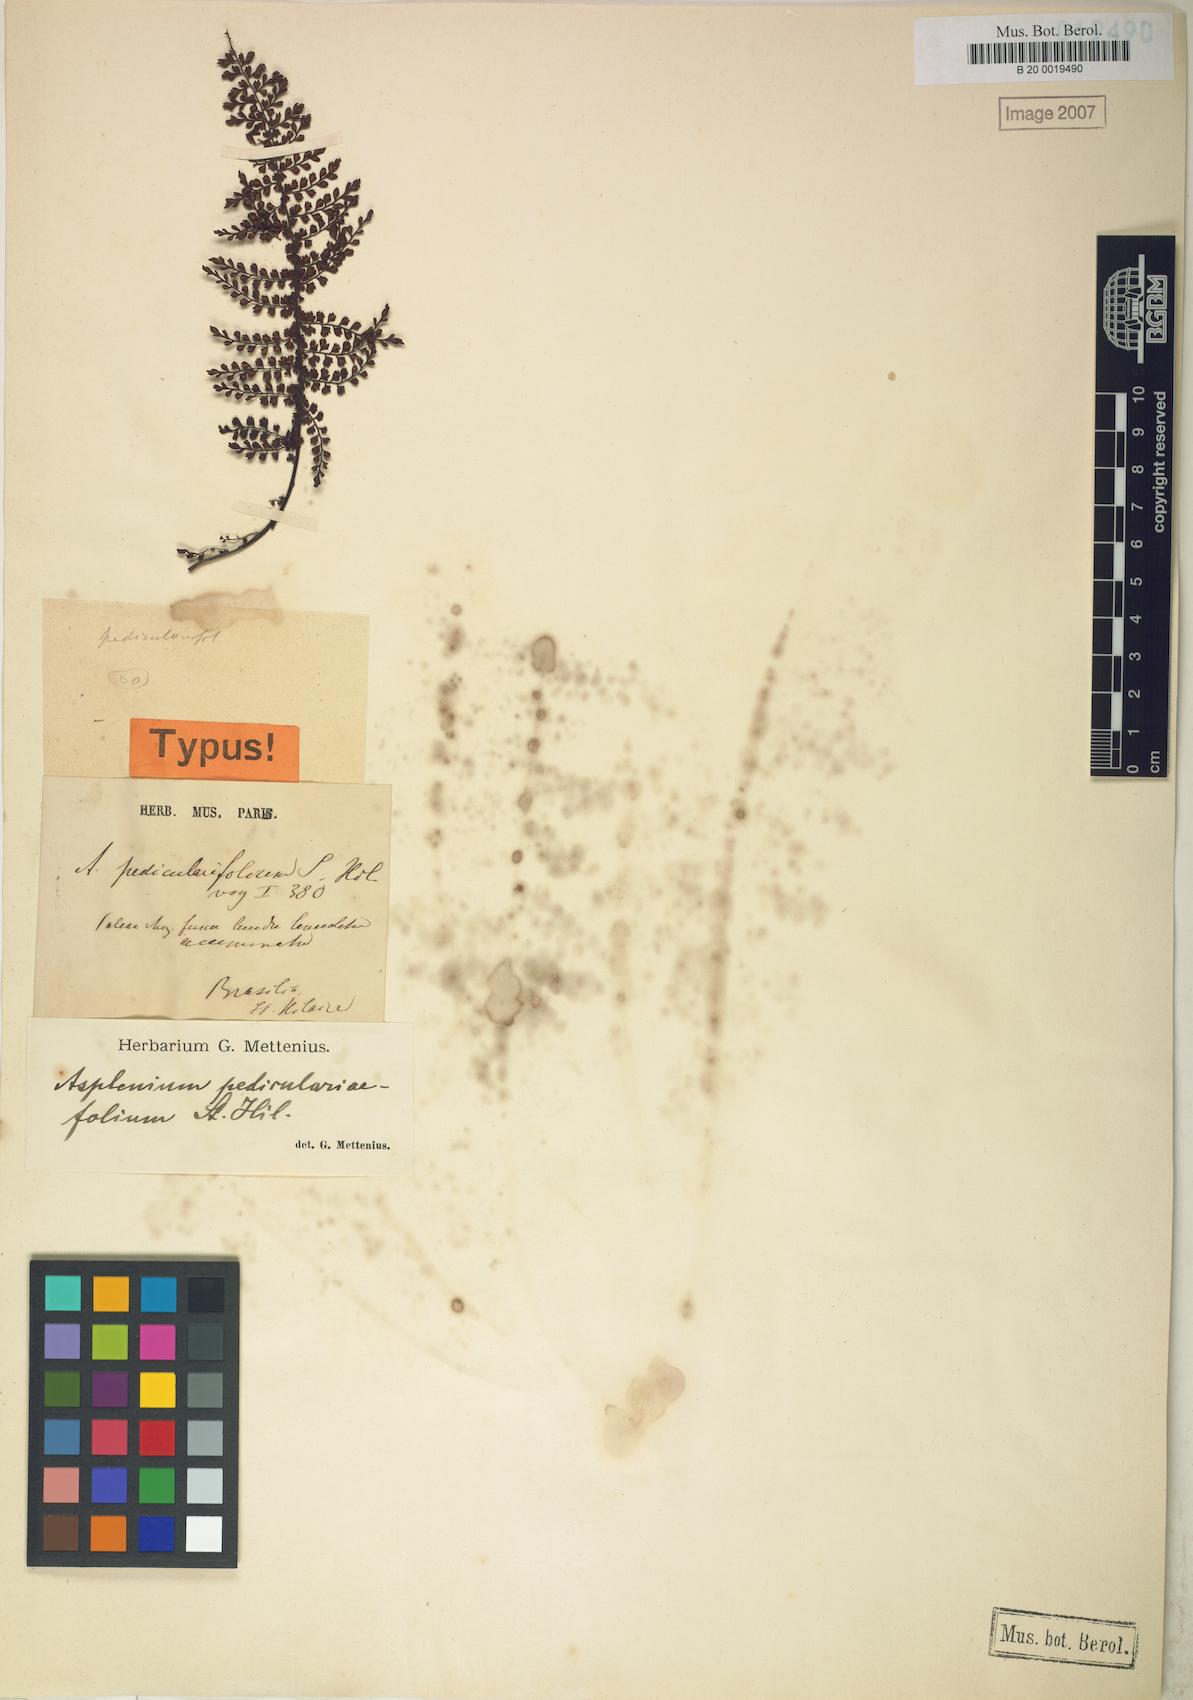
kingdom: Plantae
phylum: Tracheophyta
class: Polypodiopsida
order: Polypodiales
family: Aspleniaceae
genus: Asplenium
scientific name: Asplenium pedicularifolium
